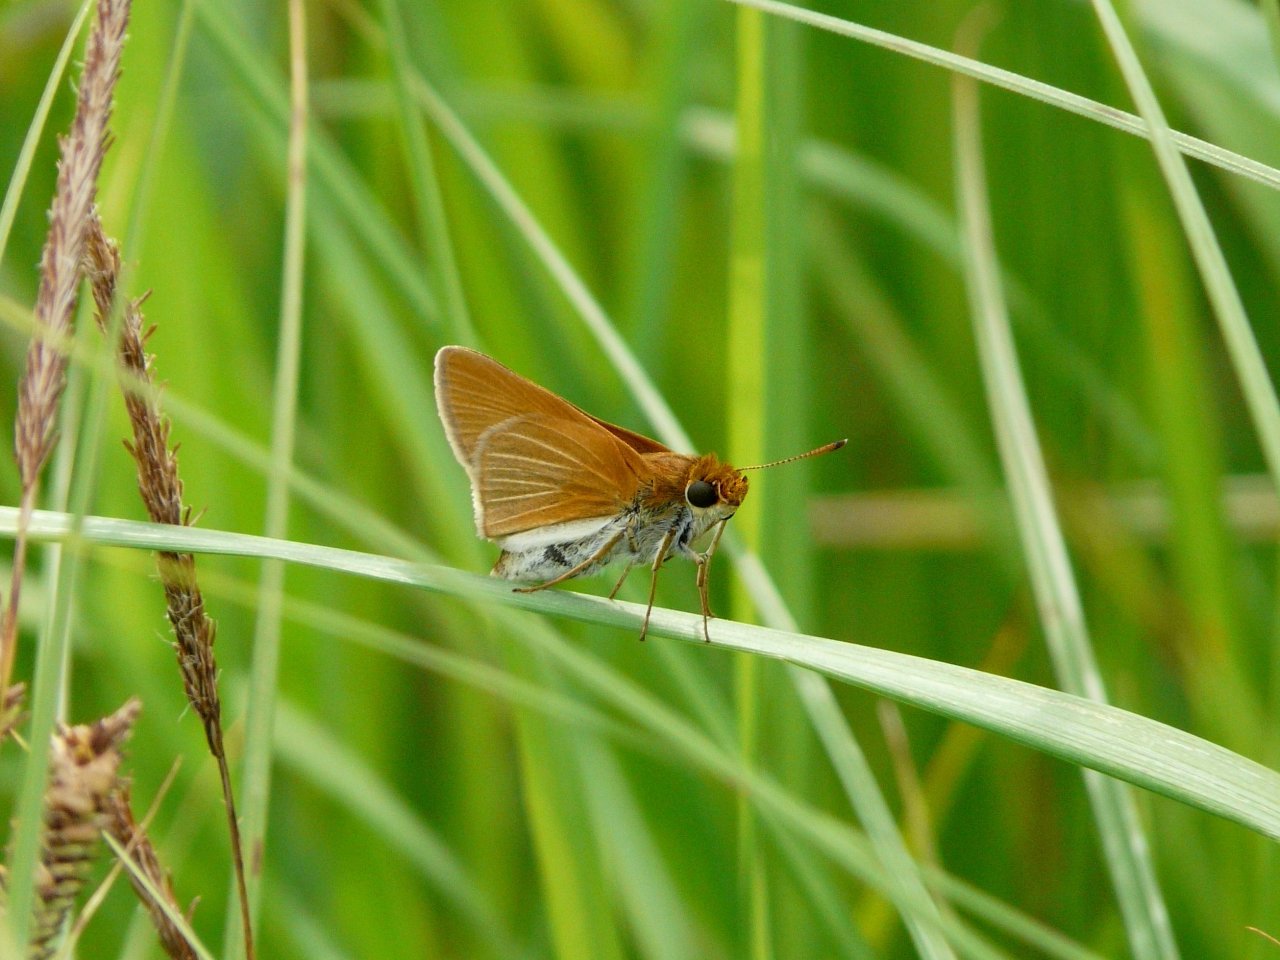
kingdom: Animalia
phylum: Arthropoda
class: Insecta
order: Lepidoptera
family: Hesperiidae
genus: Euphyes
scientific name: Euphyes bimacula
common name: Two-spotted Skipper
